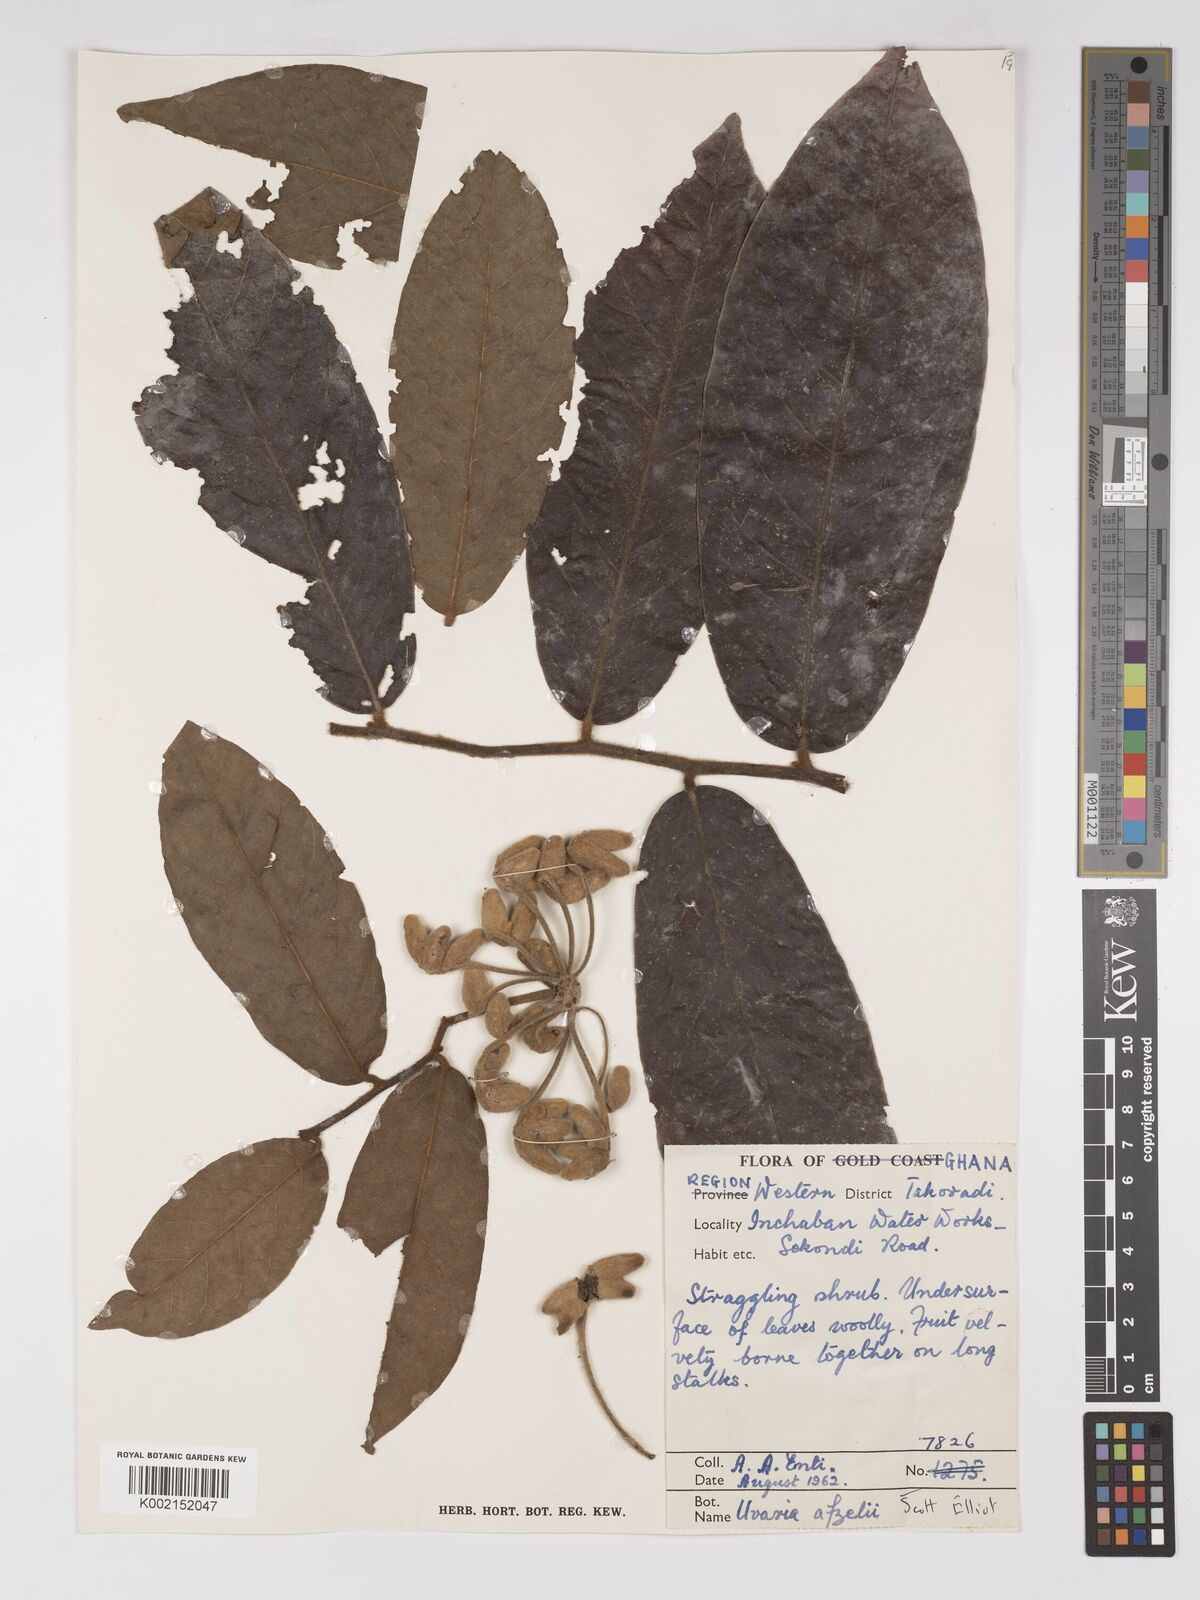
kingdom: Plantae
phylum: Tracheophyta
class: Magnoliopsida
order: Magnoliales
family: Annonaceae
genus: Uvaria
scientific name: Uvaria afzelii
